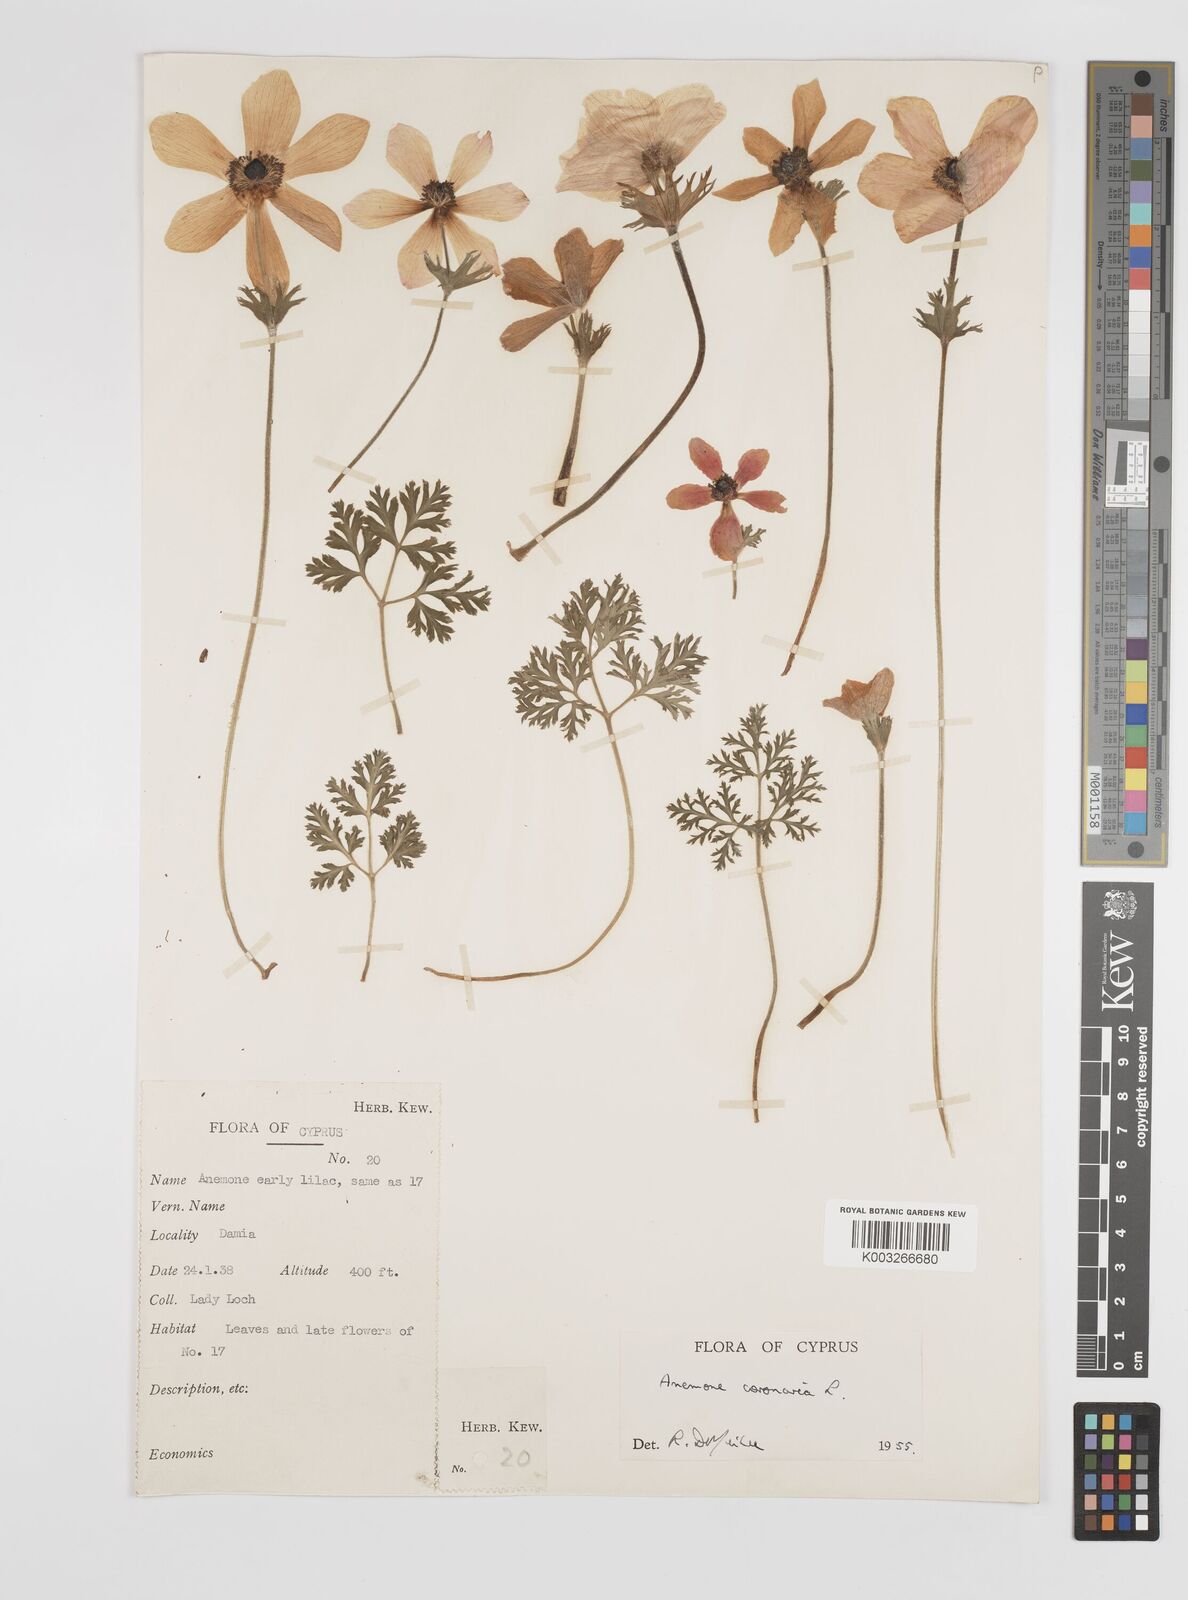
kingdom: Plantae
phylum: Tracheophyta
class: Magnoliopsida
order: Ranunculales
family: Ranunculaceae
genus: Anemone
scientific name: Anemone coronaria
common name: Poppy anemone
